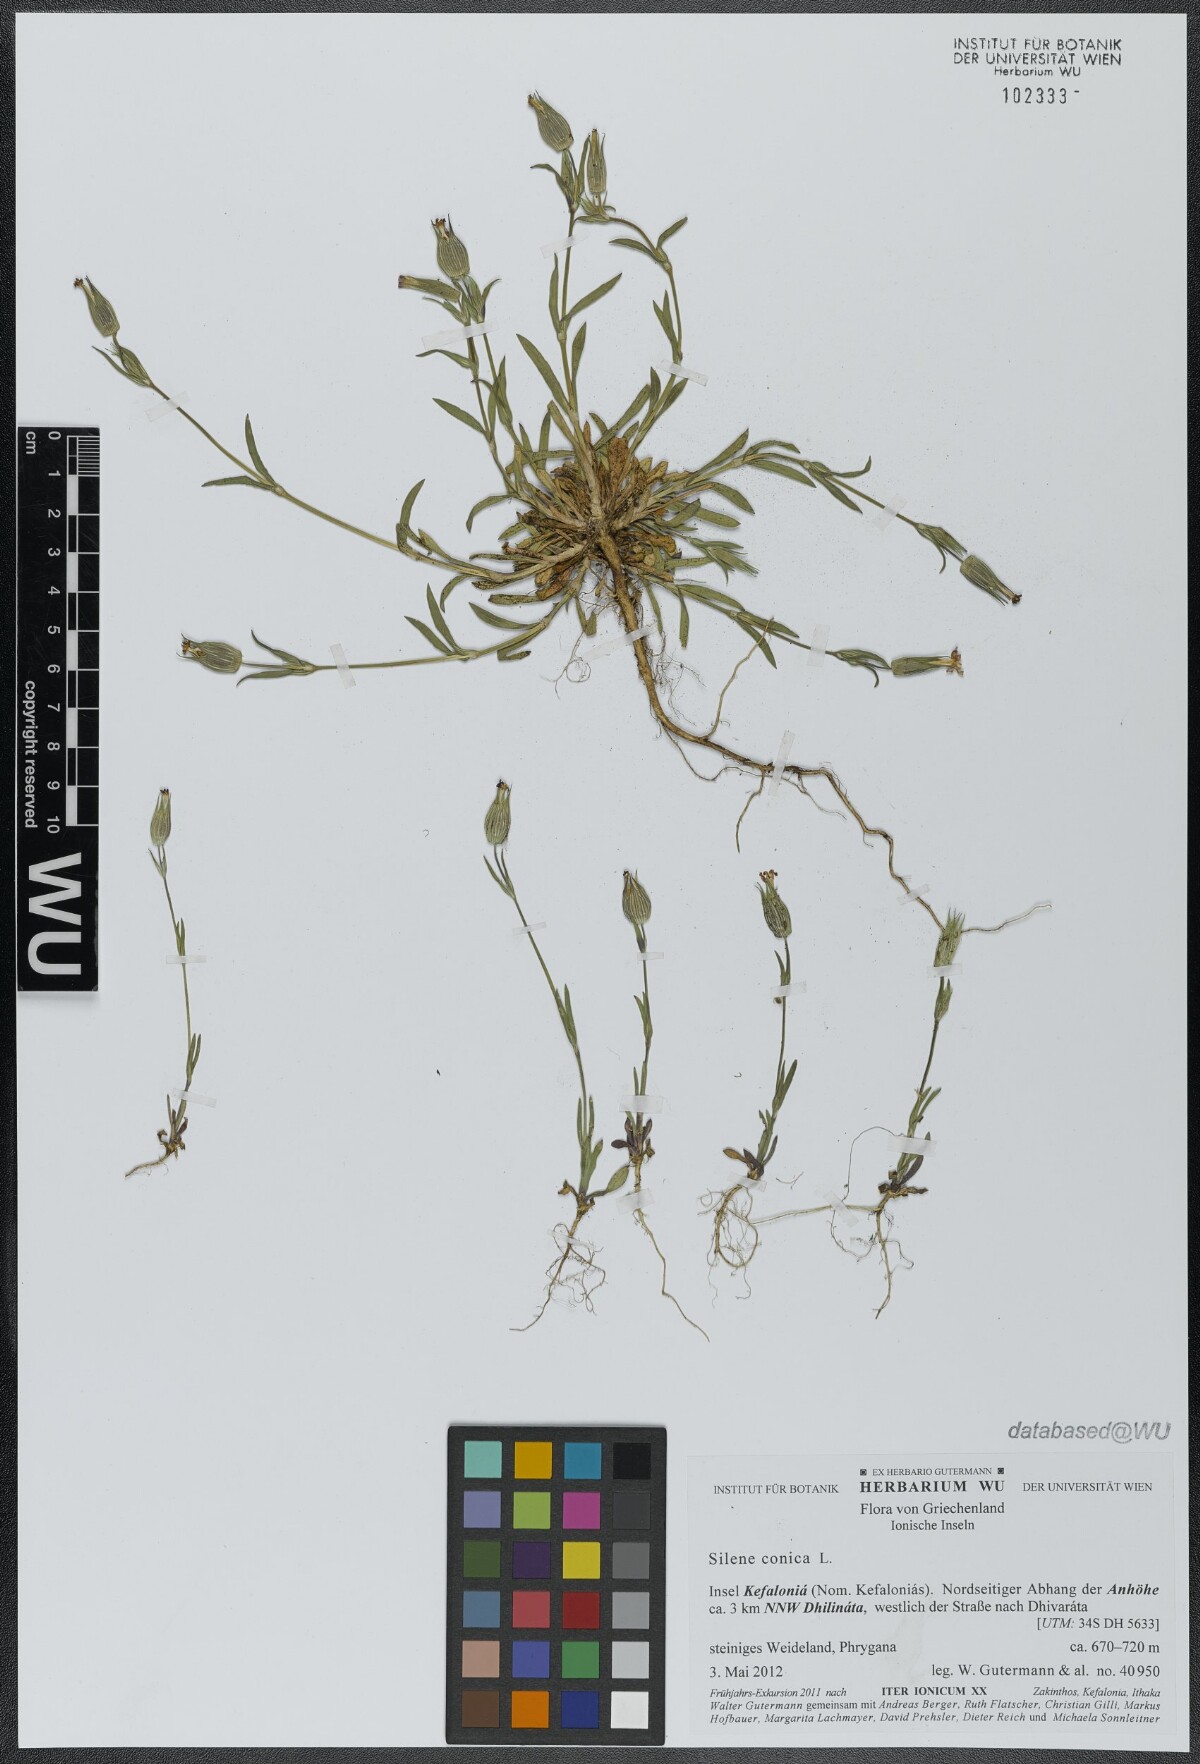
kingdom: Plantae
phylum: Tracheophyta
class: Magnoliopsida
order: Caryophyllales
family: Caryophyllaceae
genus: Silene
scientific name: Silene conica
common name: Sand catchfly
